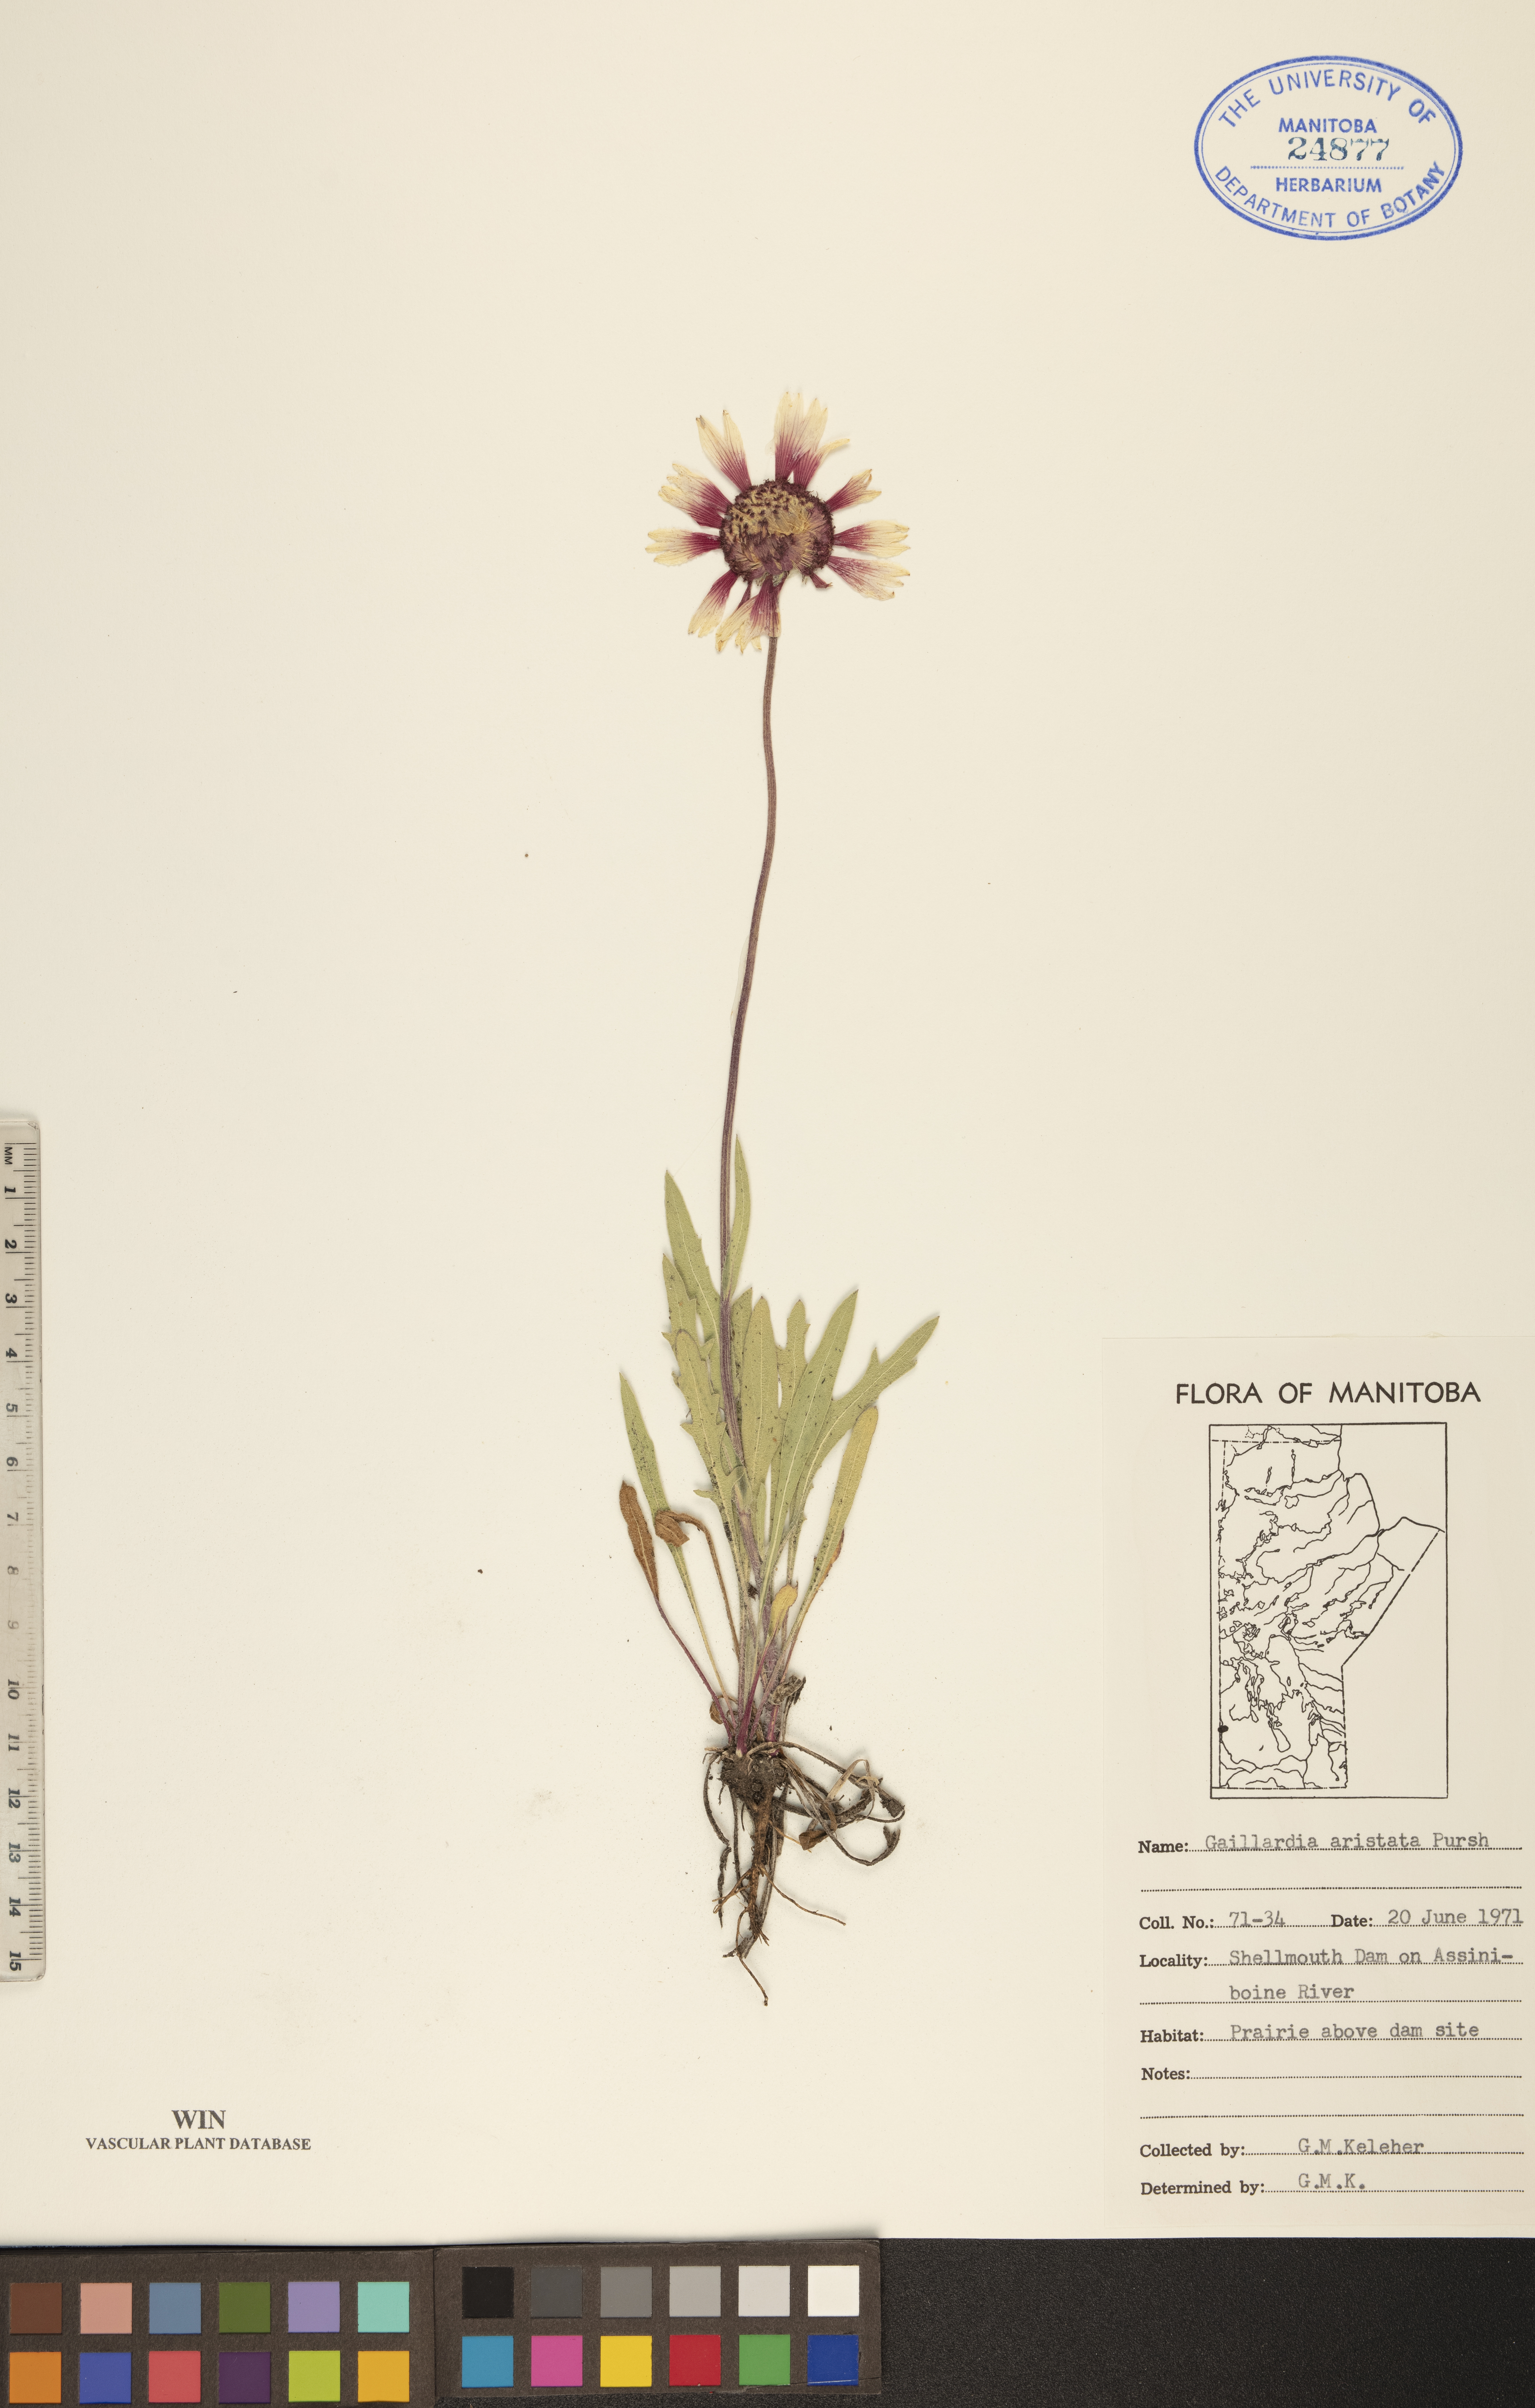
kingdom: Plantae
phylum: Tracheophyta
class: Magnoliopsida
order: Asterales
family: Asteraceae
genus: Gaillardia
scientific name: Gaillardia aristata
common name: Blanket-flower
